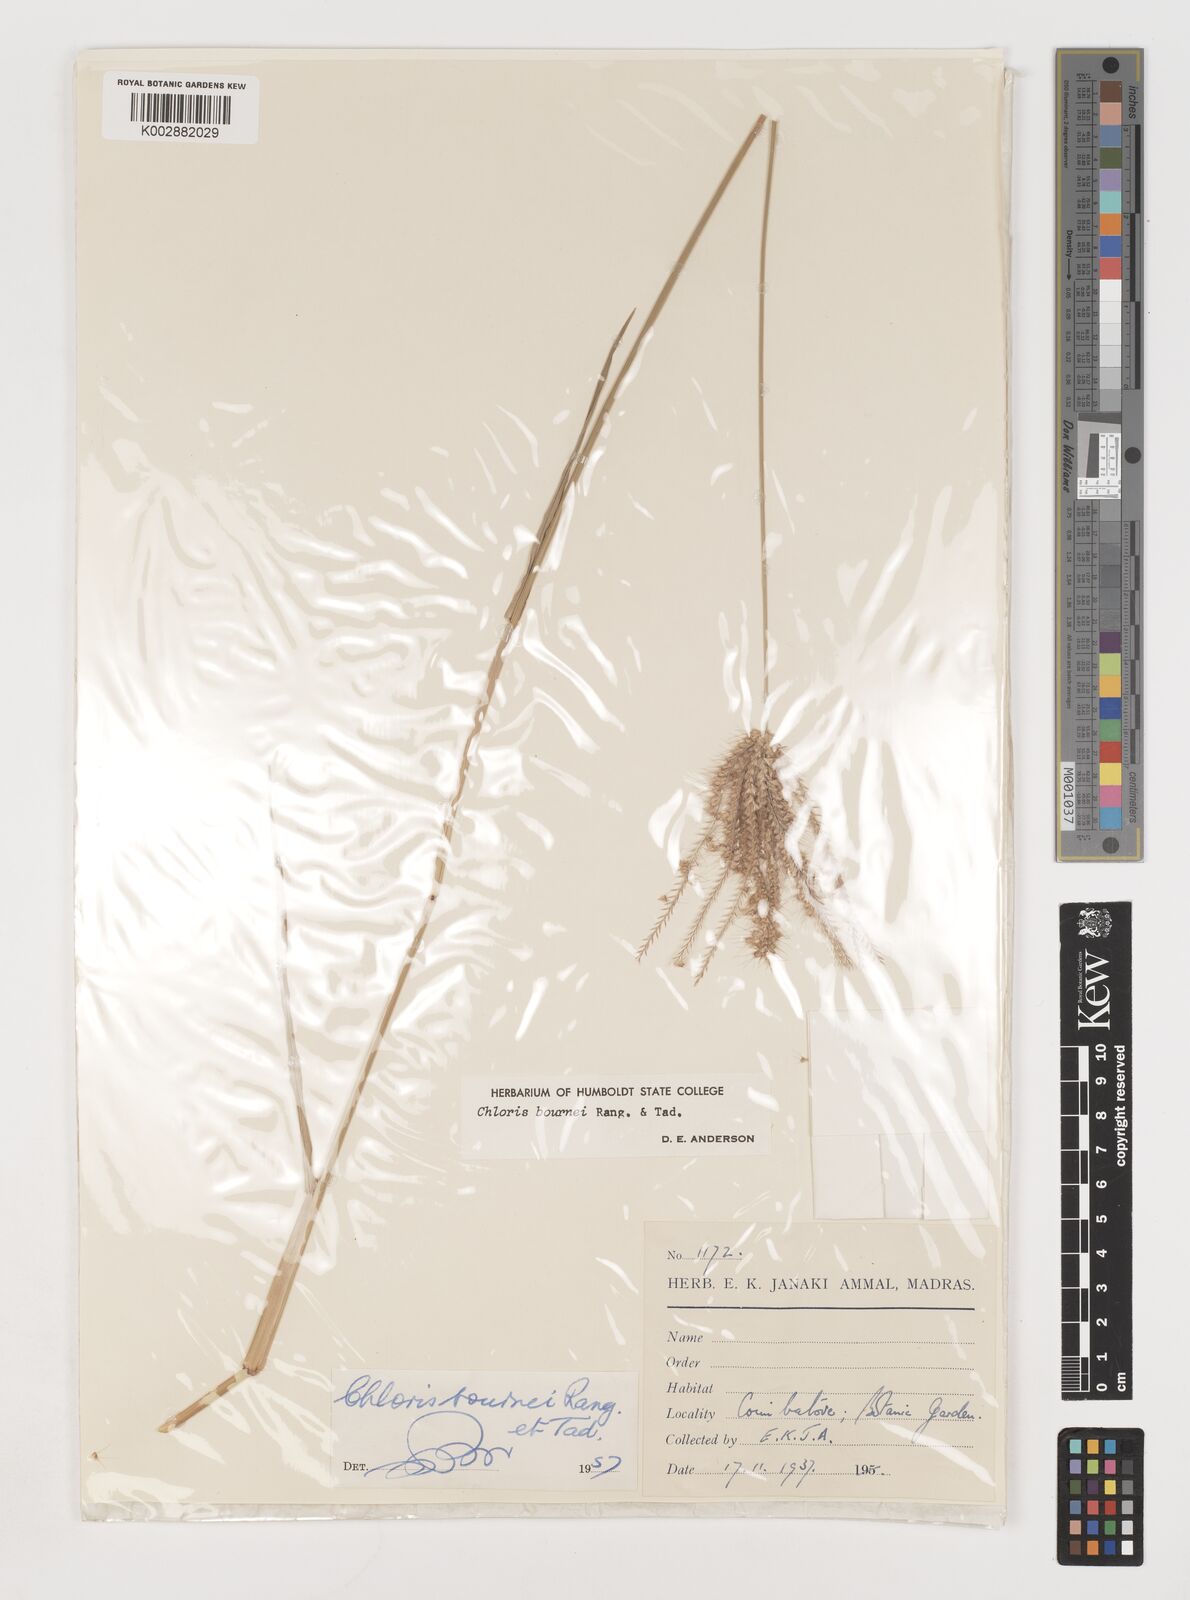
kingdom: Plantae
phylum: Tracheophyta
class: Liliopsida
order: Poales
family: Poaceae
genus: Chloris
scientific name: Chloris bournei
